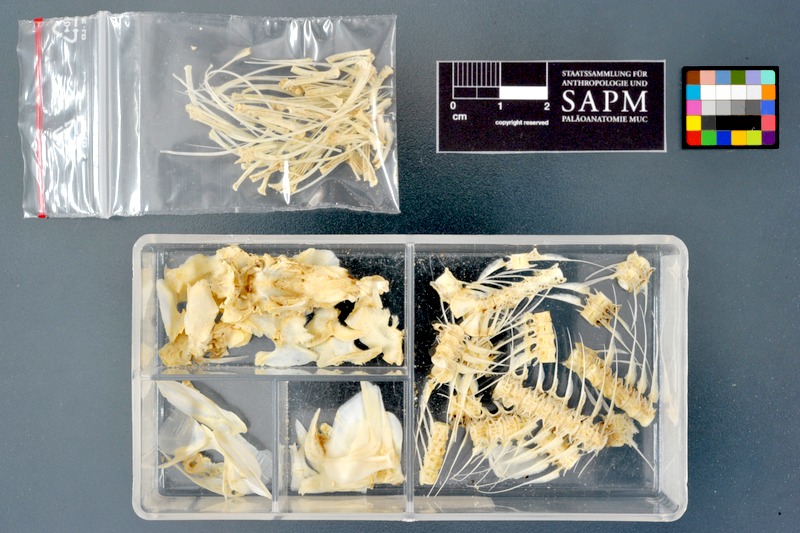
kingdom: Animalia
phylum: Chordata
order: Osteoglossiformes
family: Mormyridae
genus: Hyperopisus
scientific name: Hyperopisus bebe
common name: Ngai
